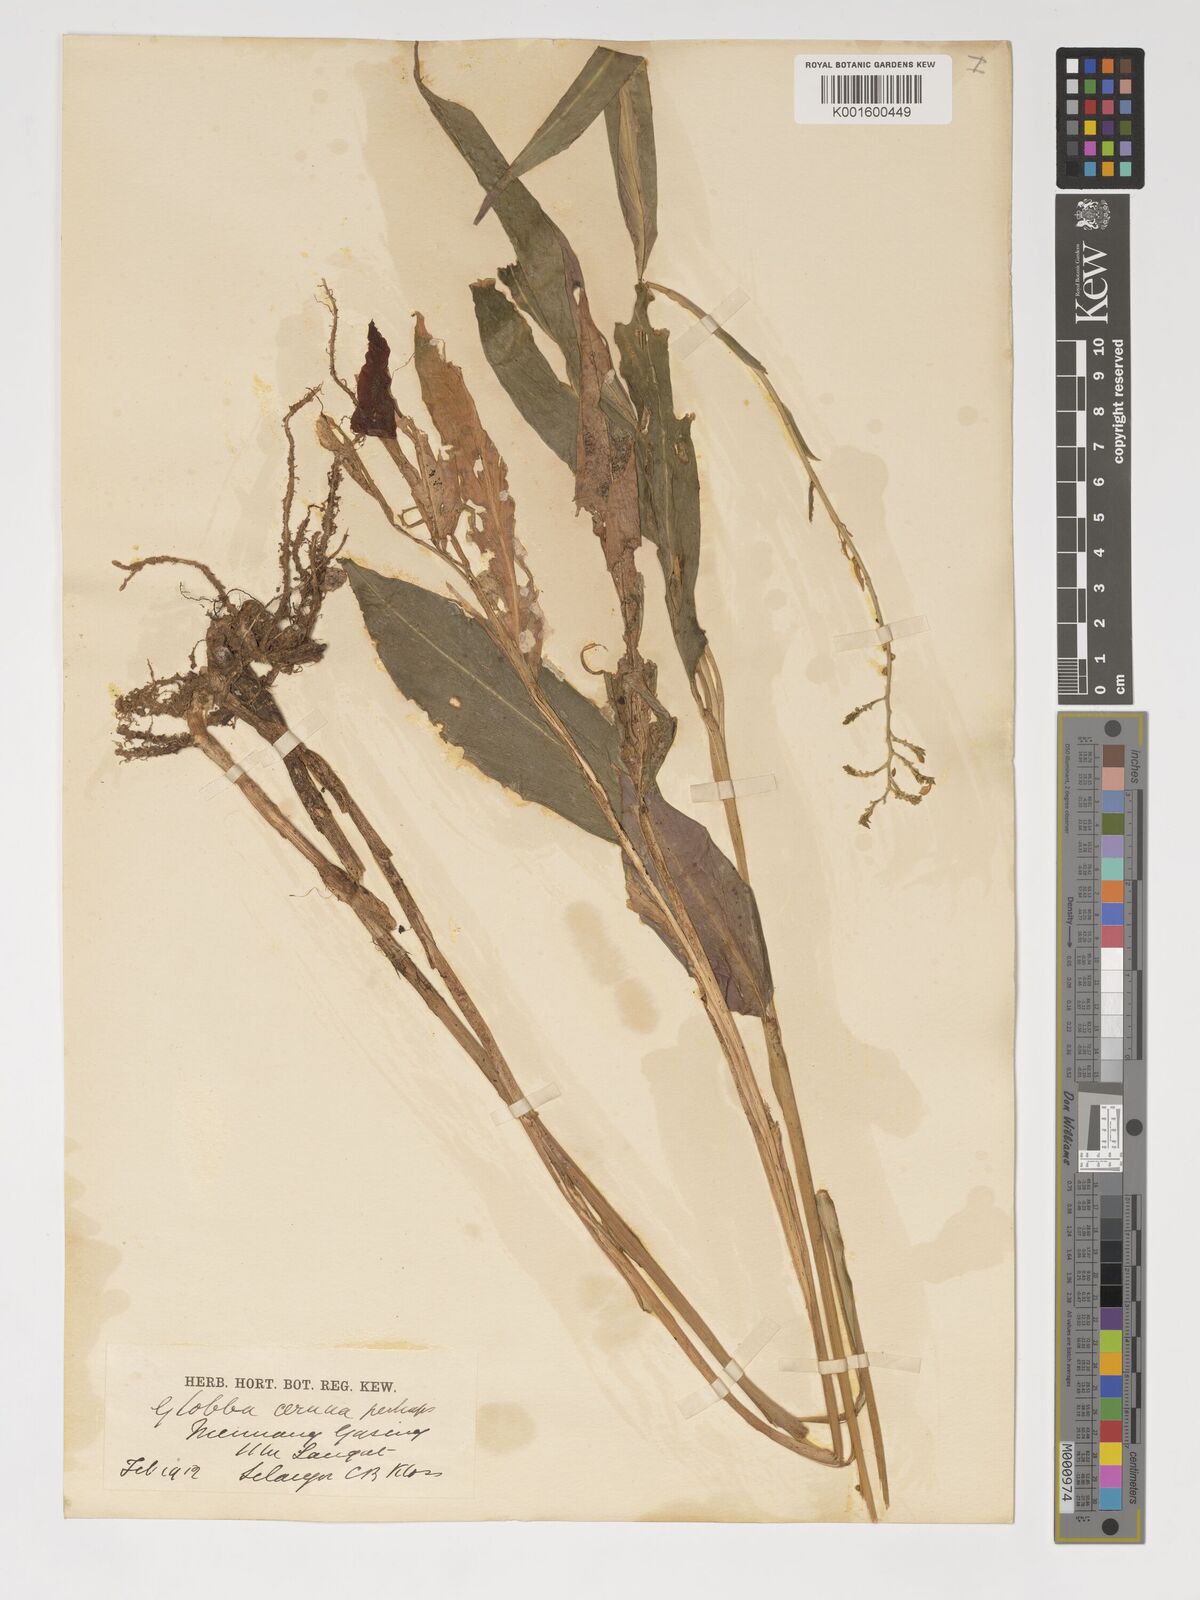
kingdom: Plantae
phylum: Tracheophyta
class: Liliopsida
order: Zingiberales
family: Zingiberaceae
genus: Globba
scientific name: Globba cernua
